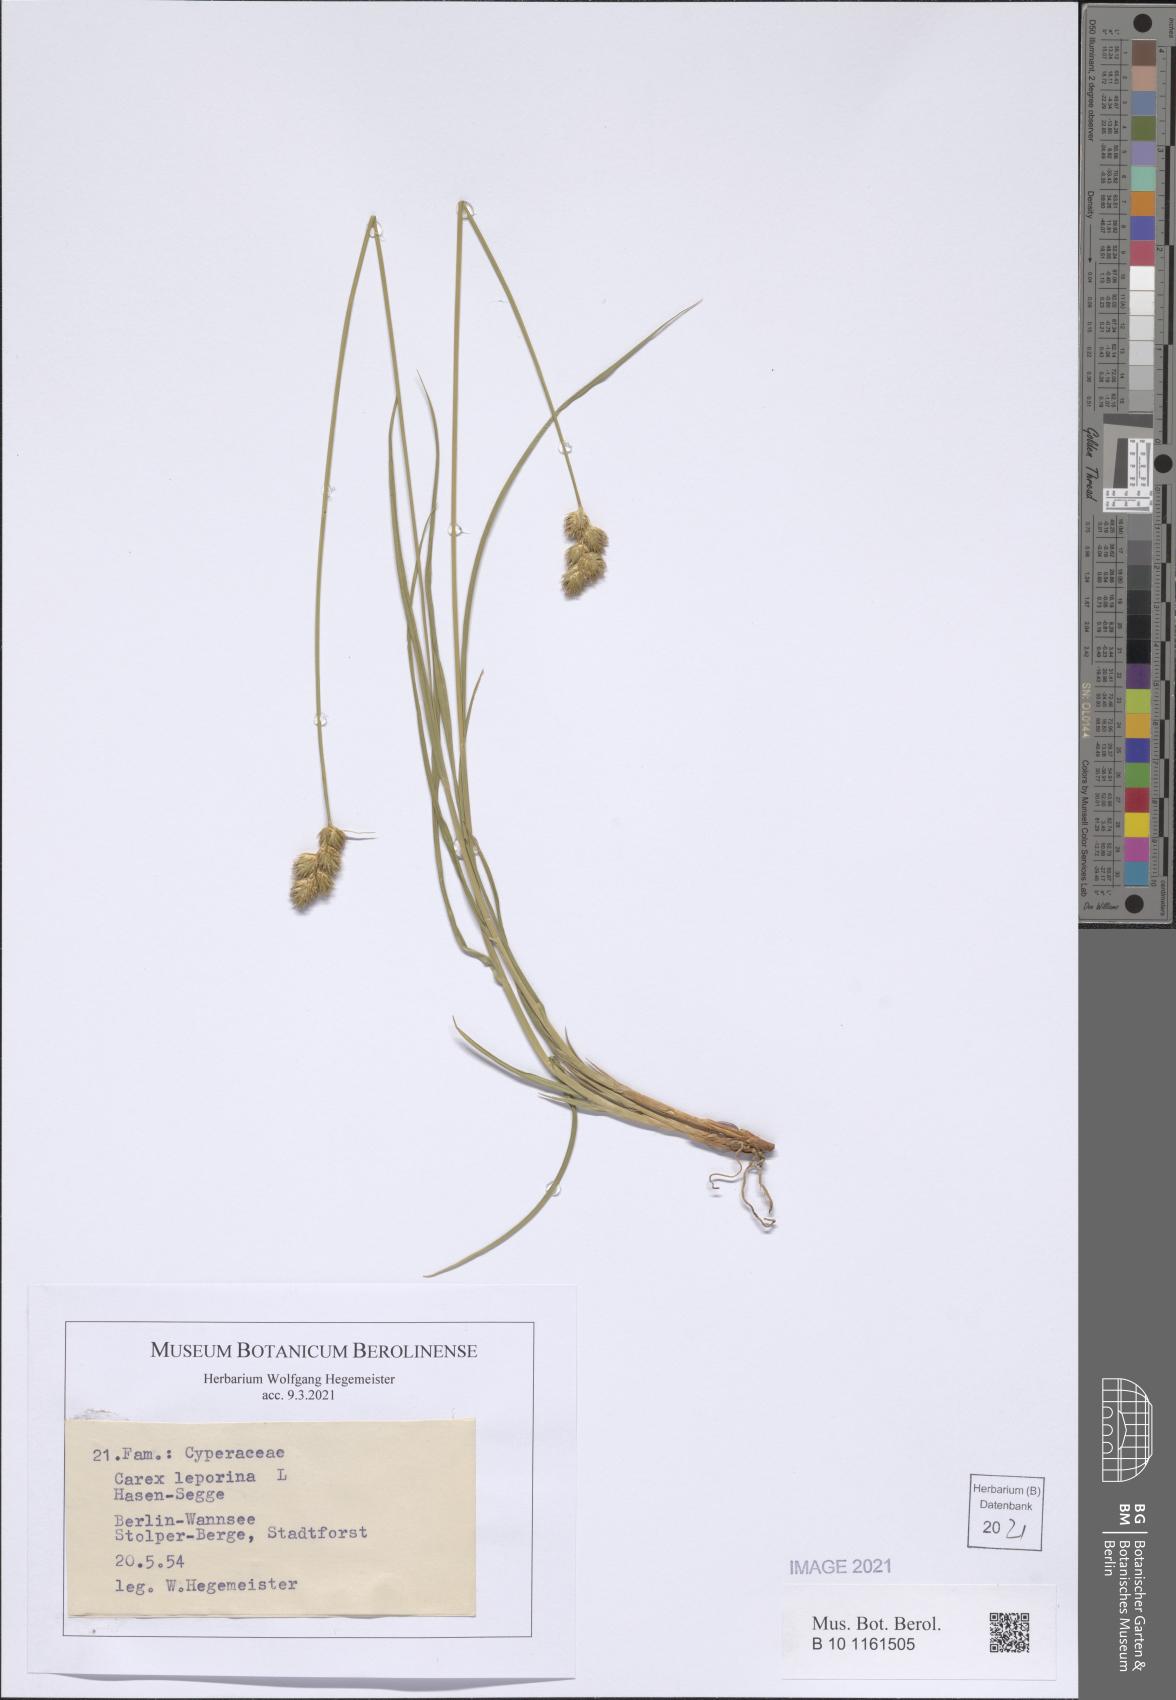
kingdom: Plantae
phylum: Tracheophyta
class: Liliopsida
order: Poales
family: Cyperaceae
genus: Carex
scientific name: Carex leporina
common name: Oval sedge
